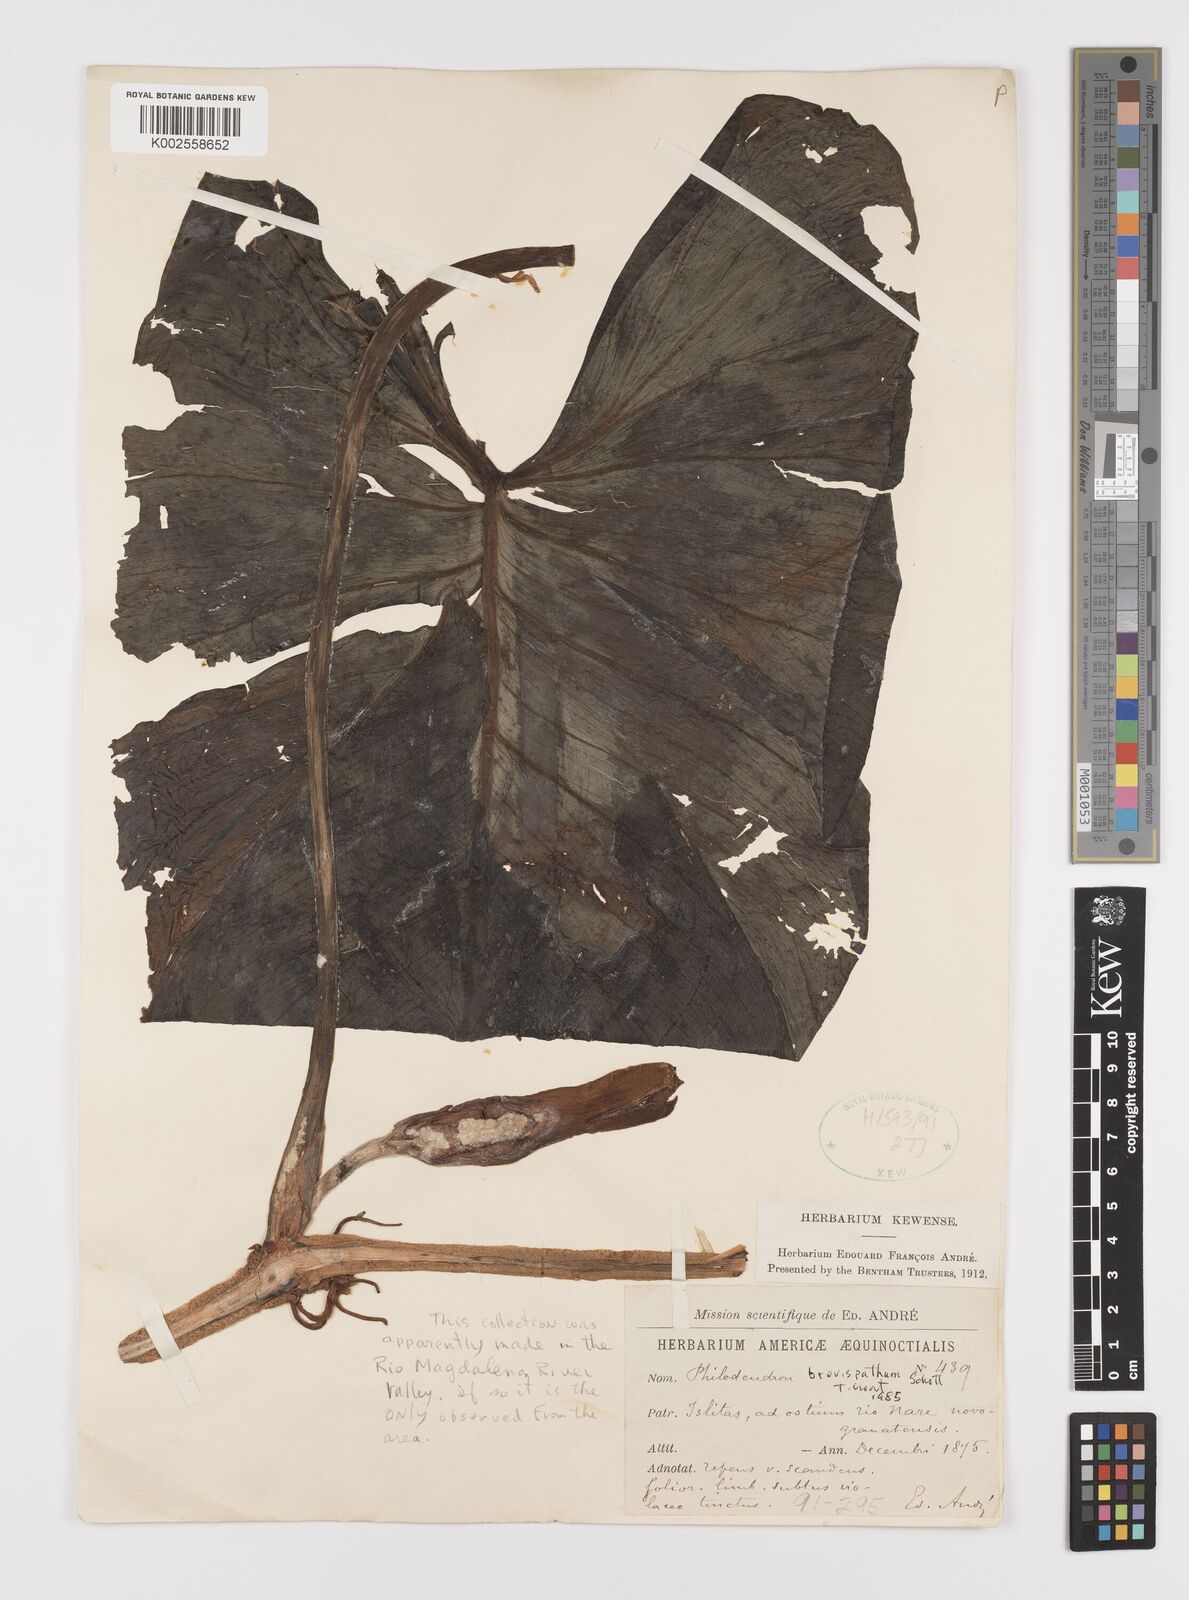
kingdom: Plantae
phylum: Tracheophyta
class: Liliopsida
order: Alismatales
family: Araceae
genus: Philodendron
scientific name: Philodendron brevispathum
